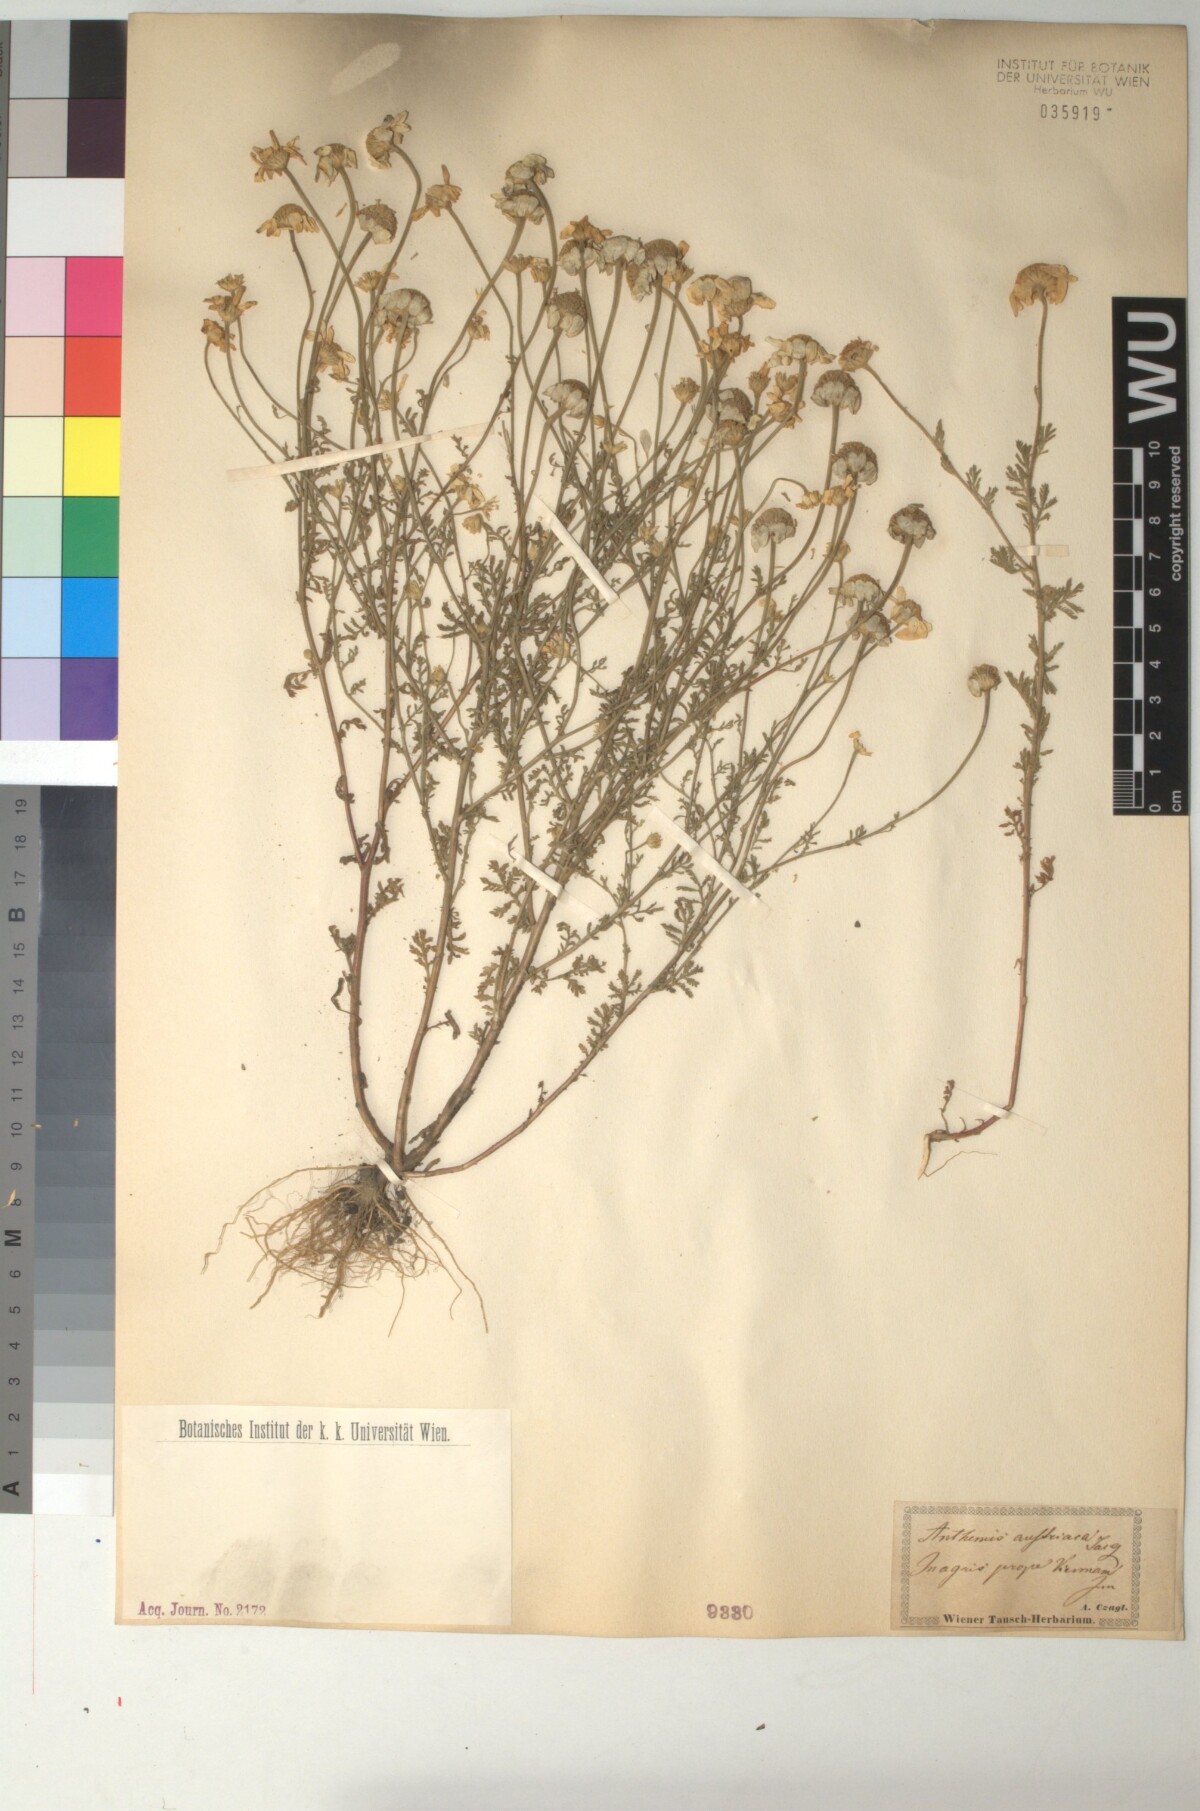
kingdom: Plantae
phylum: Tracheophyta
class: Magnoliopsida
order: Asterales
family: Asteraceae
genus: Cota
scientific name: Cota austriaca
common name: Austrian chamomile
